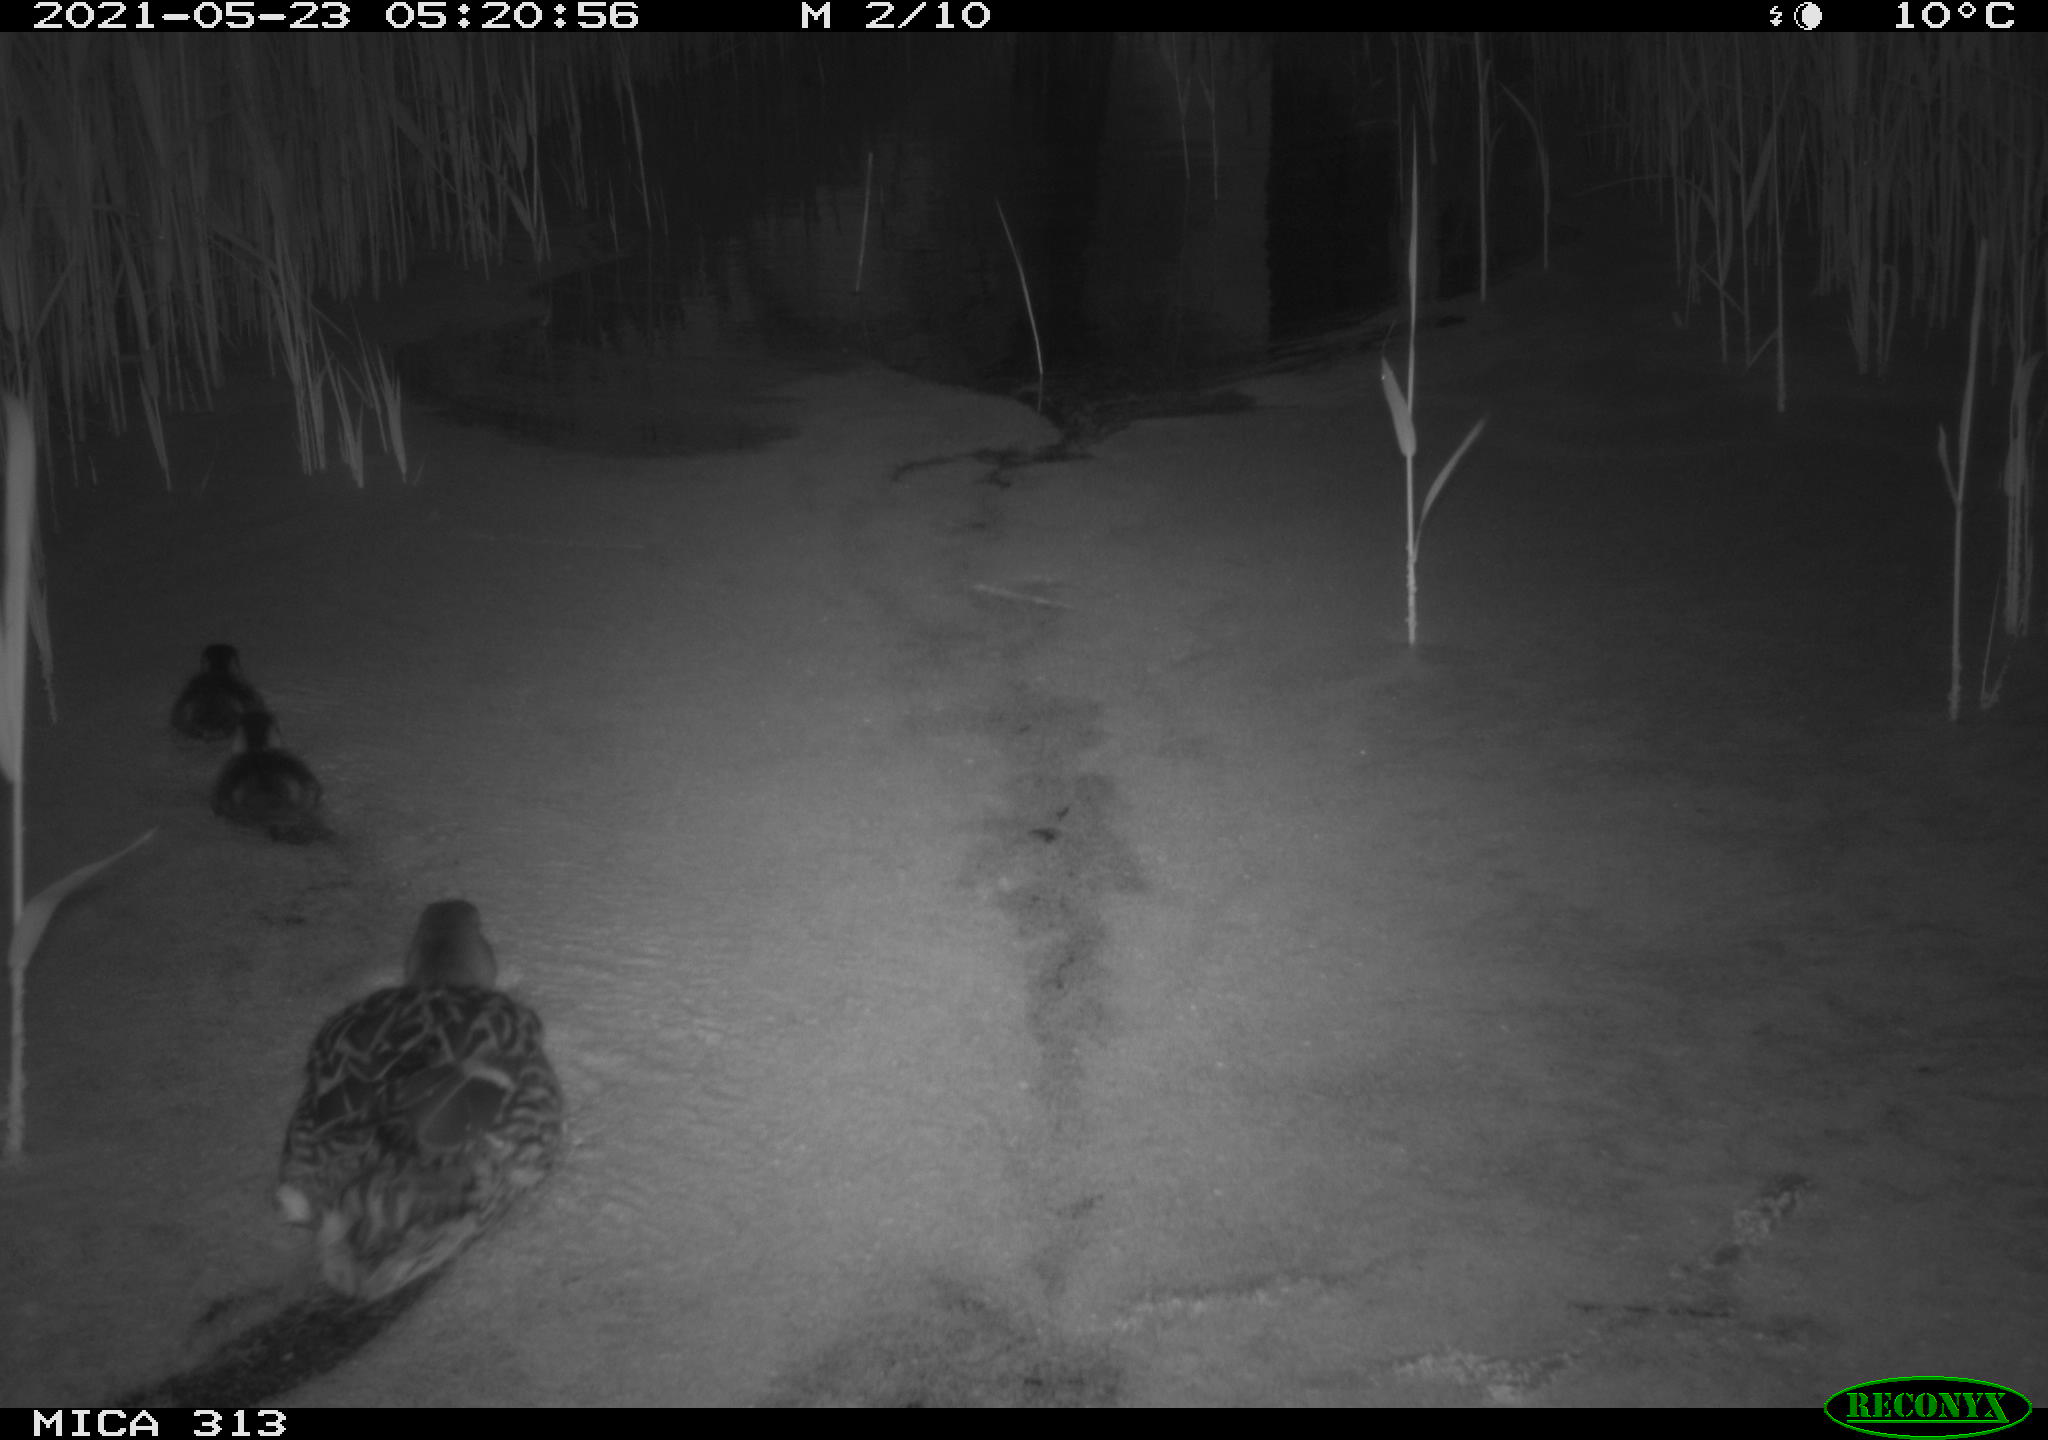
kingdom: Animalia
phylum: Chordata
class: Aves
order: Anseriformes
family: Anatidae
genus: Anas
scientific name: Anas platyrhynchos
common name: Mallard
